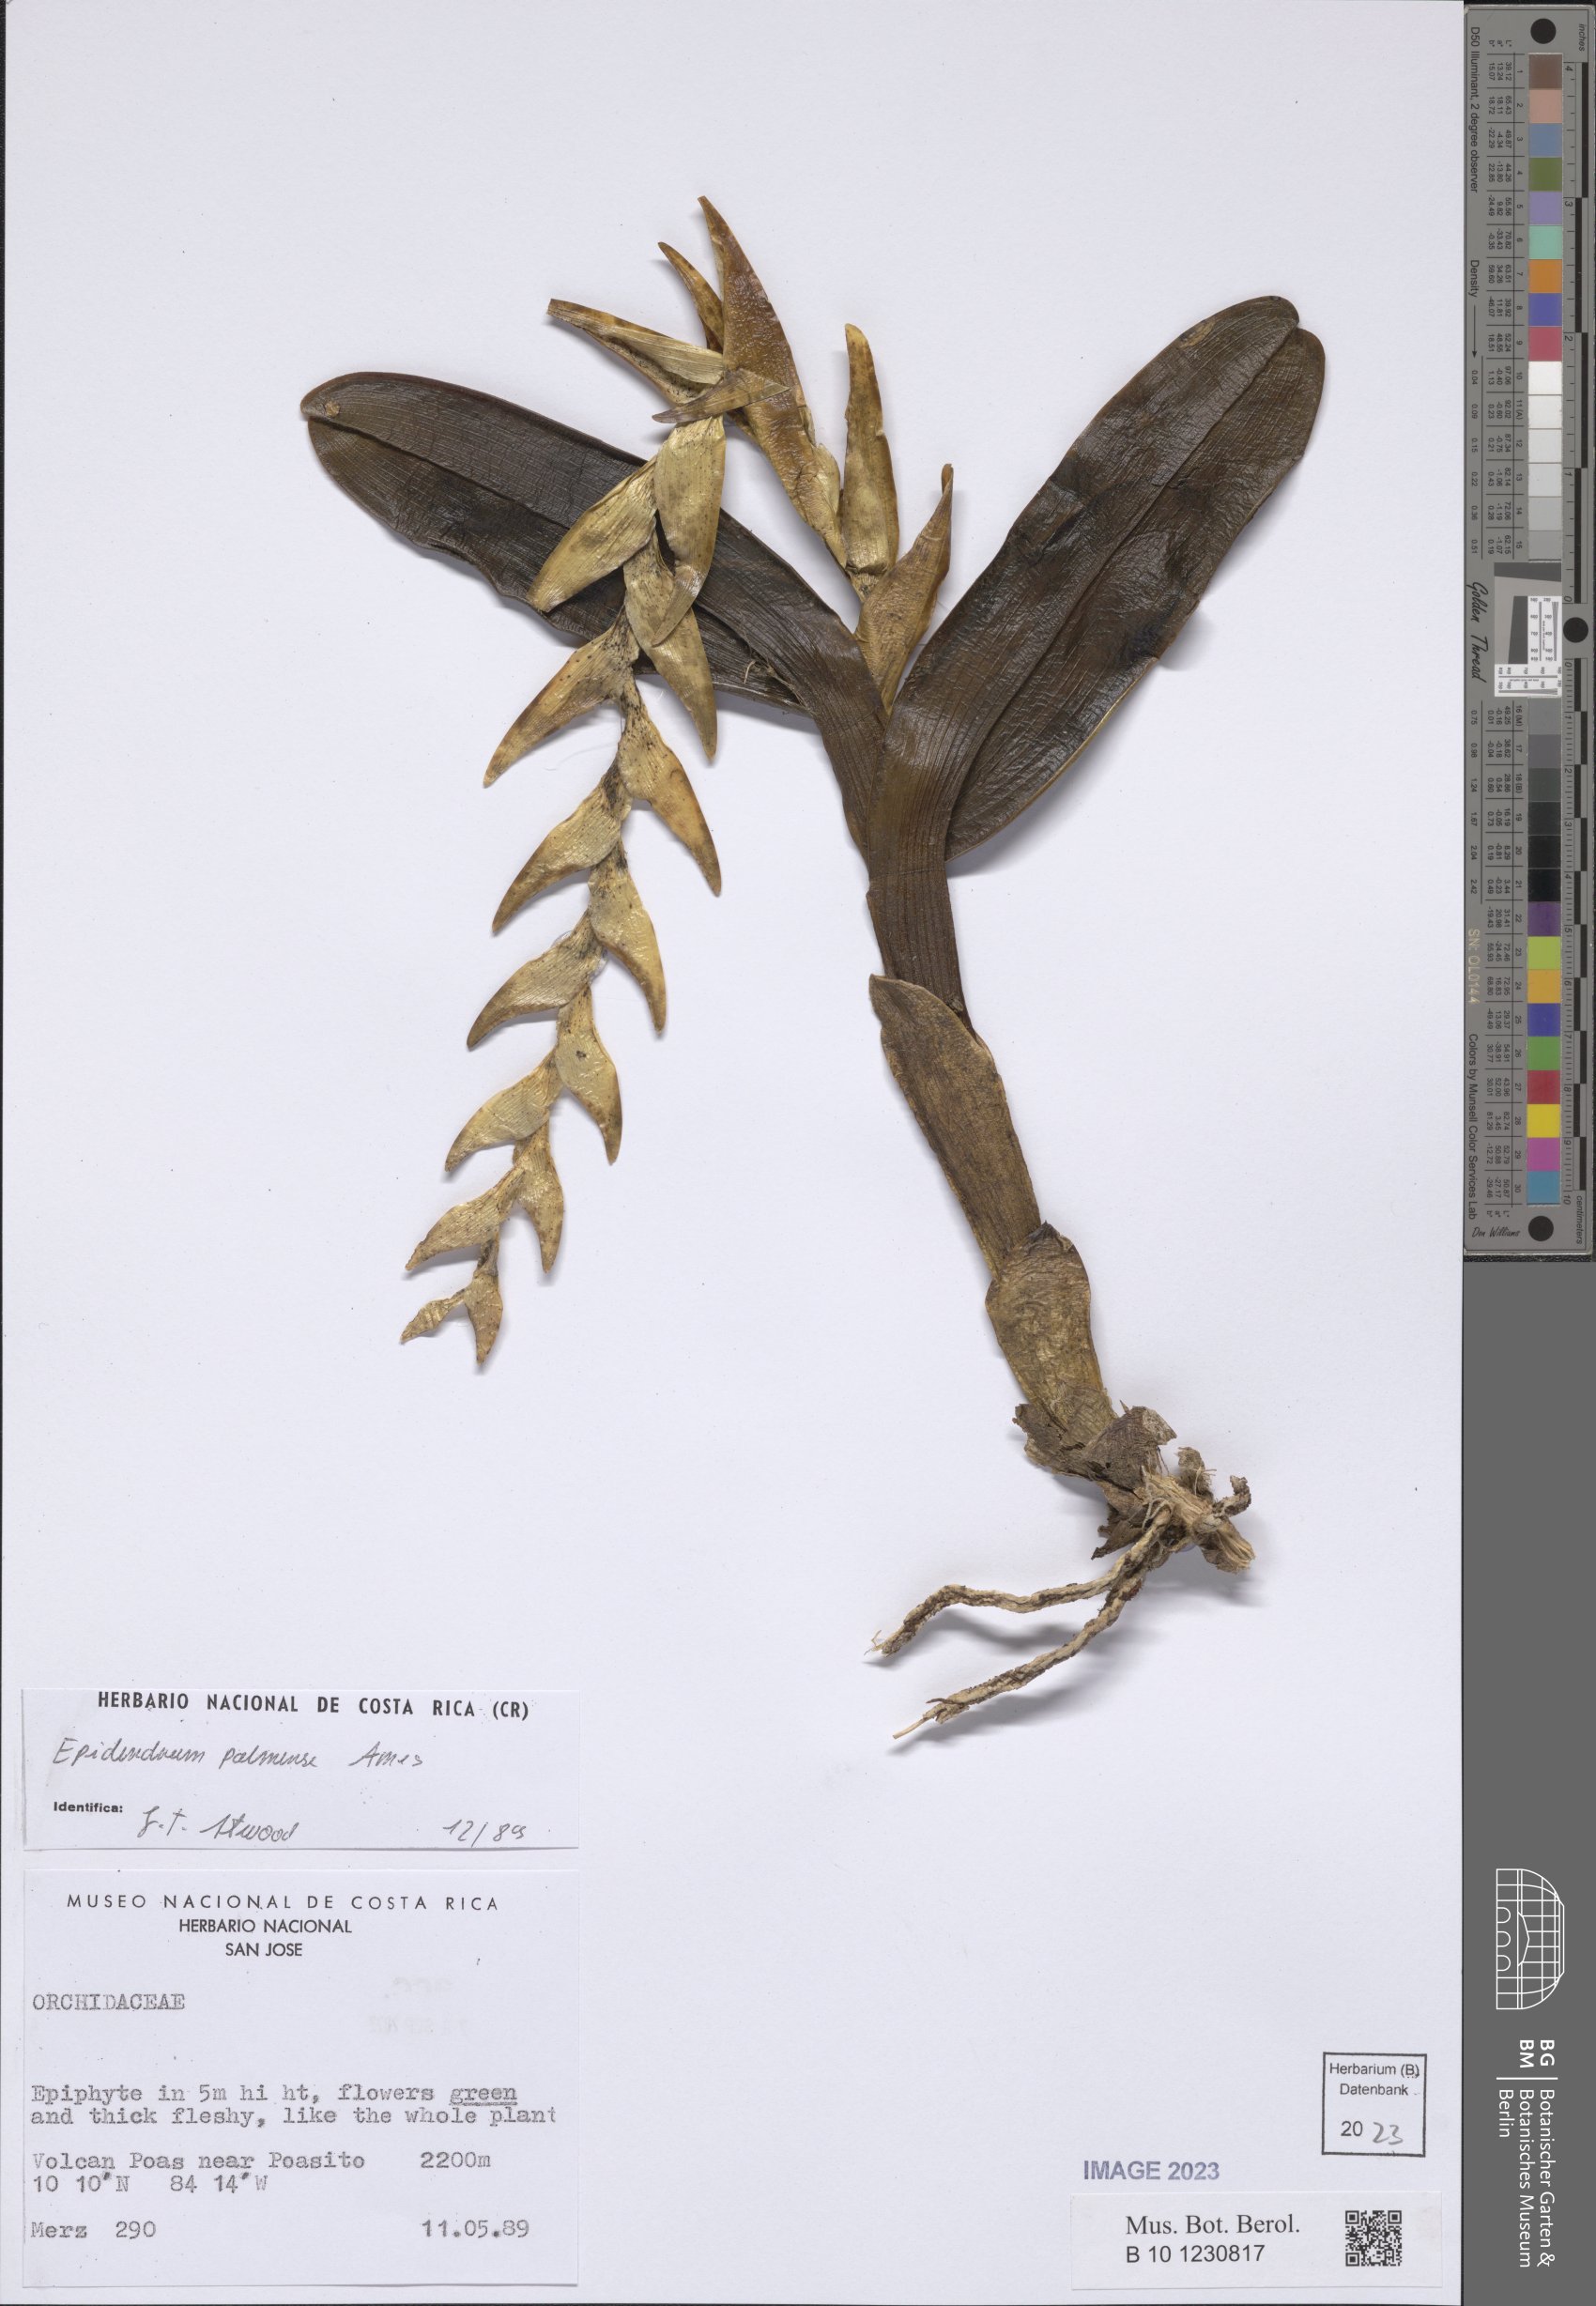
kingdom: Plantae
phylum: Tracheophyta
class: Liliopsida
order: Asparagales
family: Orchidaceae
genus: Epidendrum
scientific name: Epidendrum magnibracteatum
